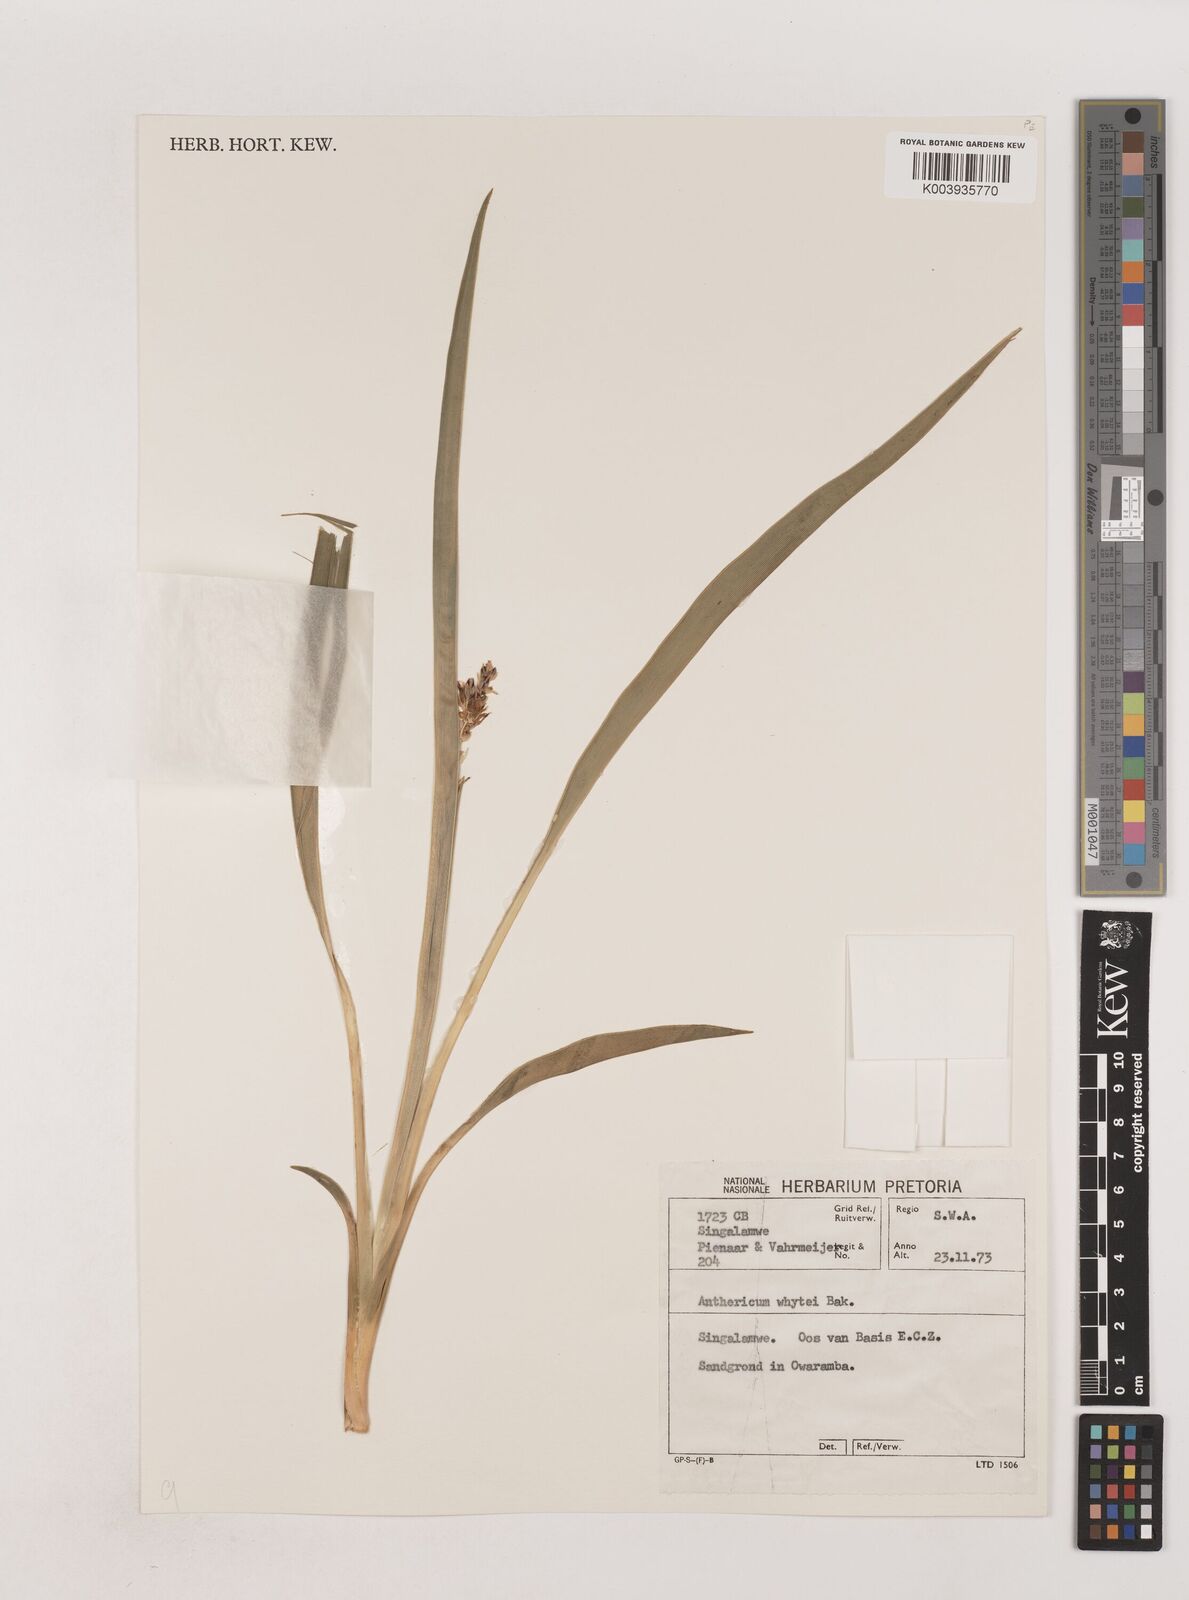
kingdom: Plantae
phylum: Tracheophyta
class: Liliopsida
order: Asparagales
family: Asparagaceae
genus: Chlorophytum
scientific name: Chlorophytum sphacelatum
